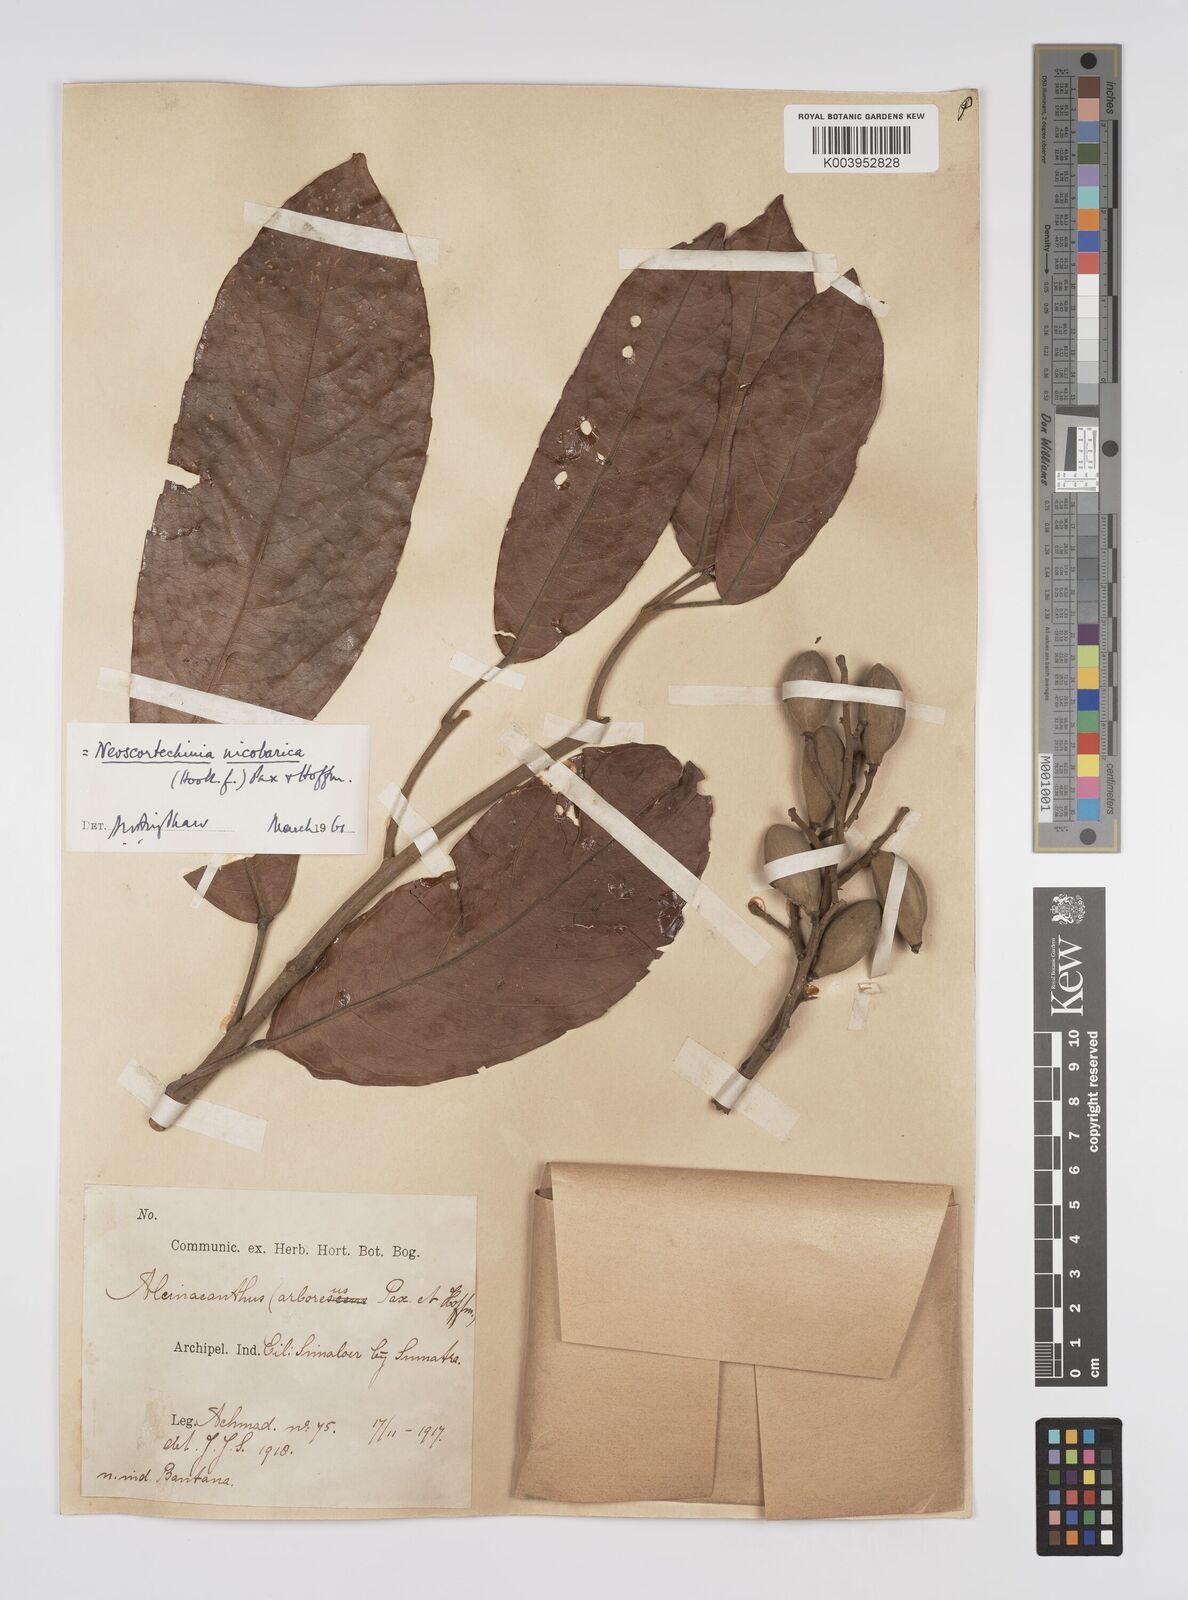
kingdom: Plantae
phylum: Tracheophyta
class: Magnoliopsida
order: Malpighiales
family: Euphorbiaceae
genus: Neoscortechinia
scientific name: Neoscortechinia nicobarica
